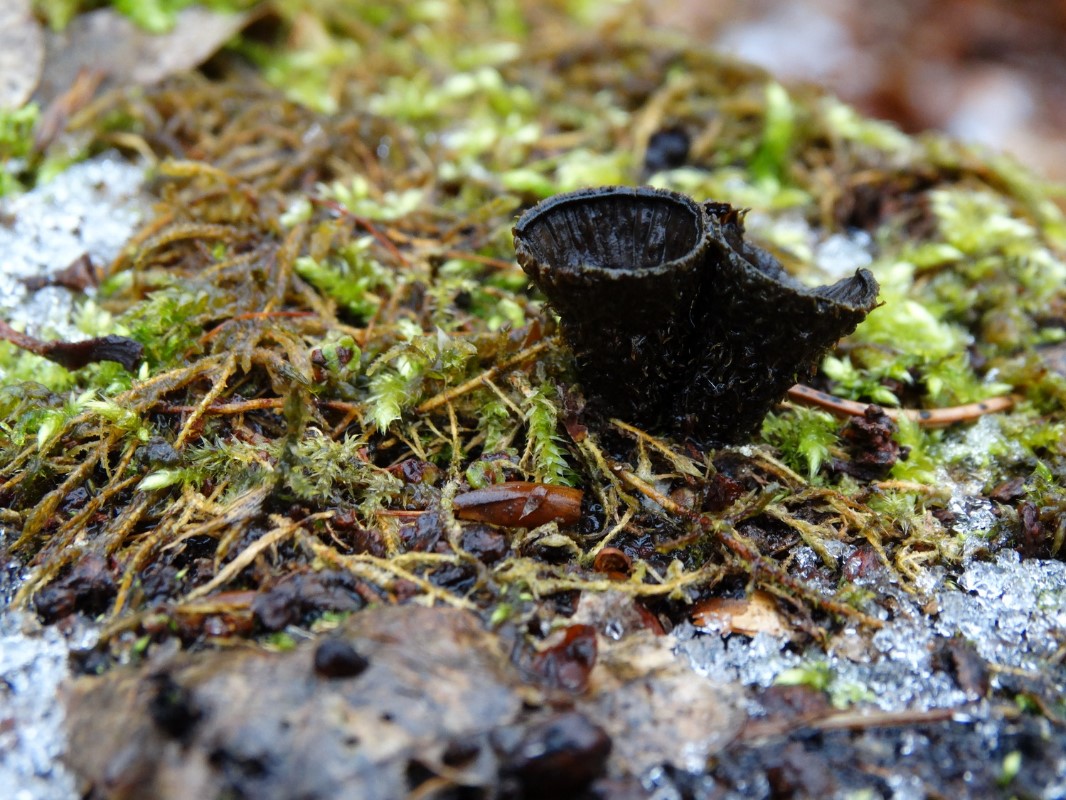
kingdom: Fungi
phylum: Basidiomycota
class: Agaricomycetes
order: Agaricales
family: Agaricaceae
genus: Cyathus
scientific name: Cyathus striatus
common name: stribet redesvamp
